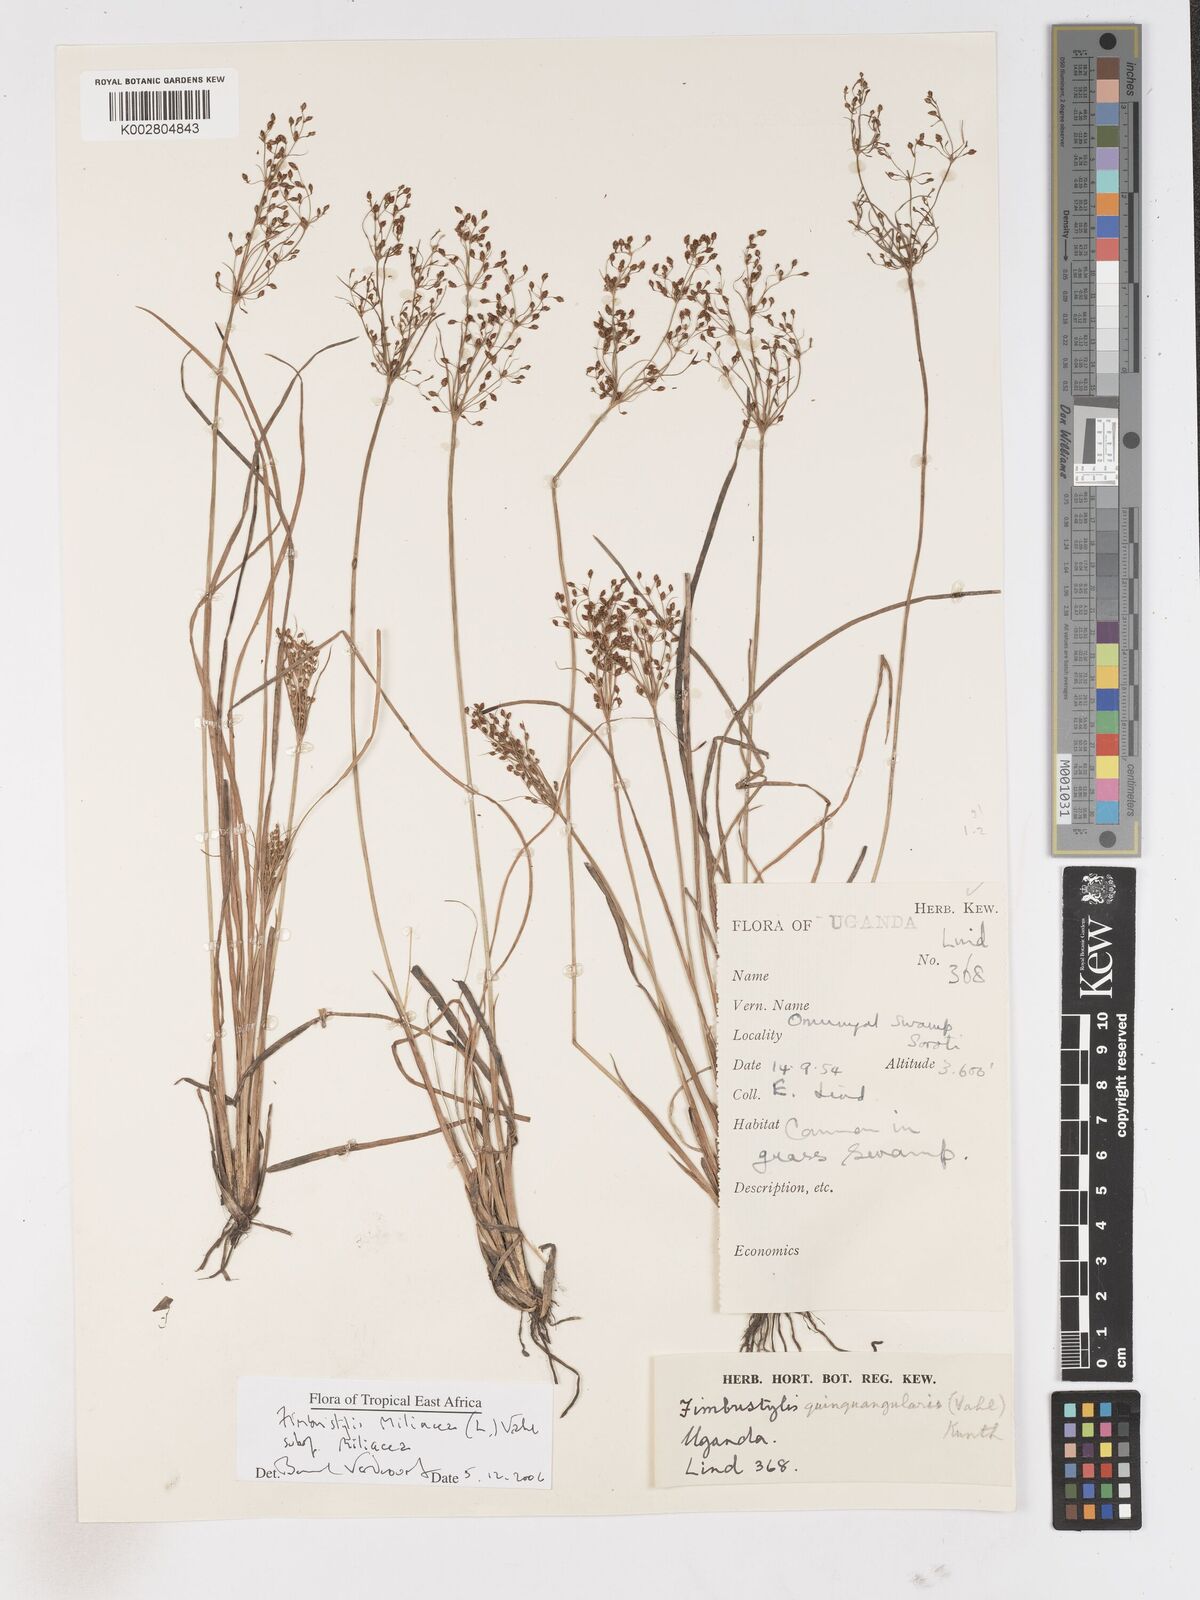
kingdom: Plantae
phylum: Tracheophyta
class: Liliopsida
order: Poales
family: Cyperaceae
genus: Fimbristylis
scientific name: Fimbristylis quinquangularis
